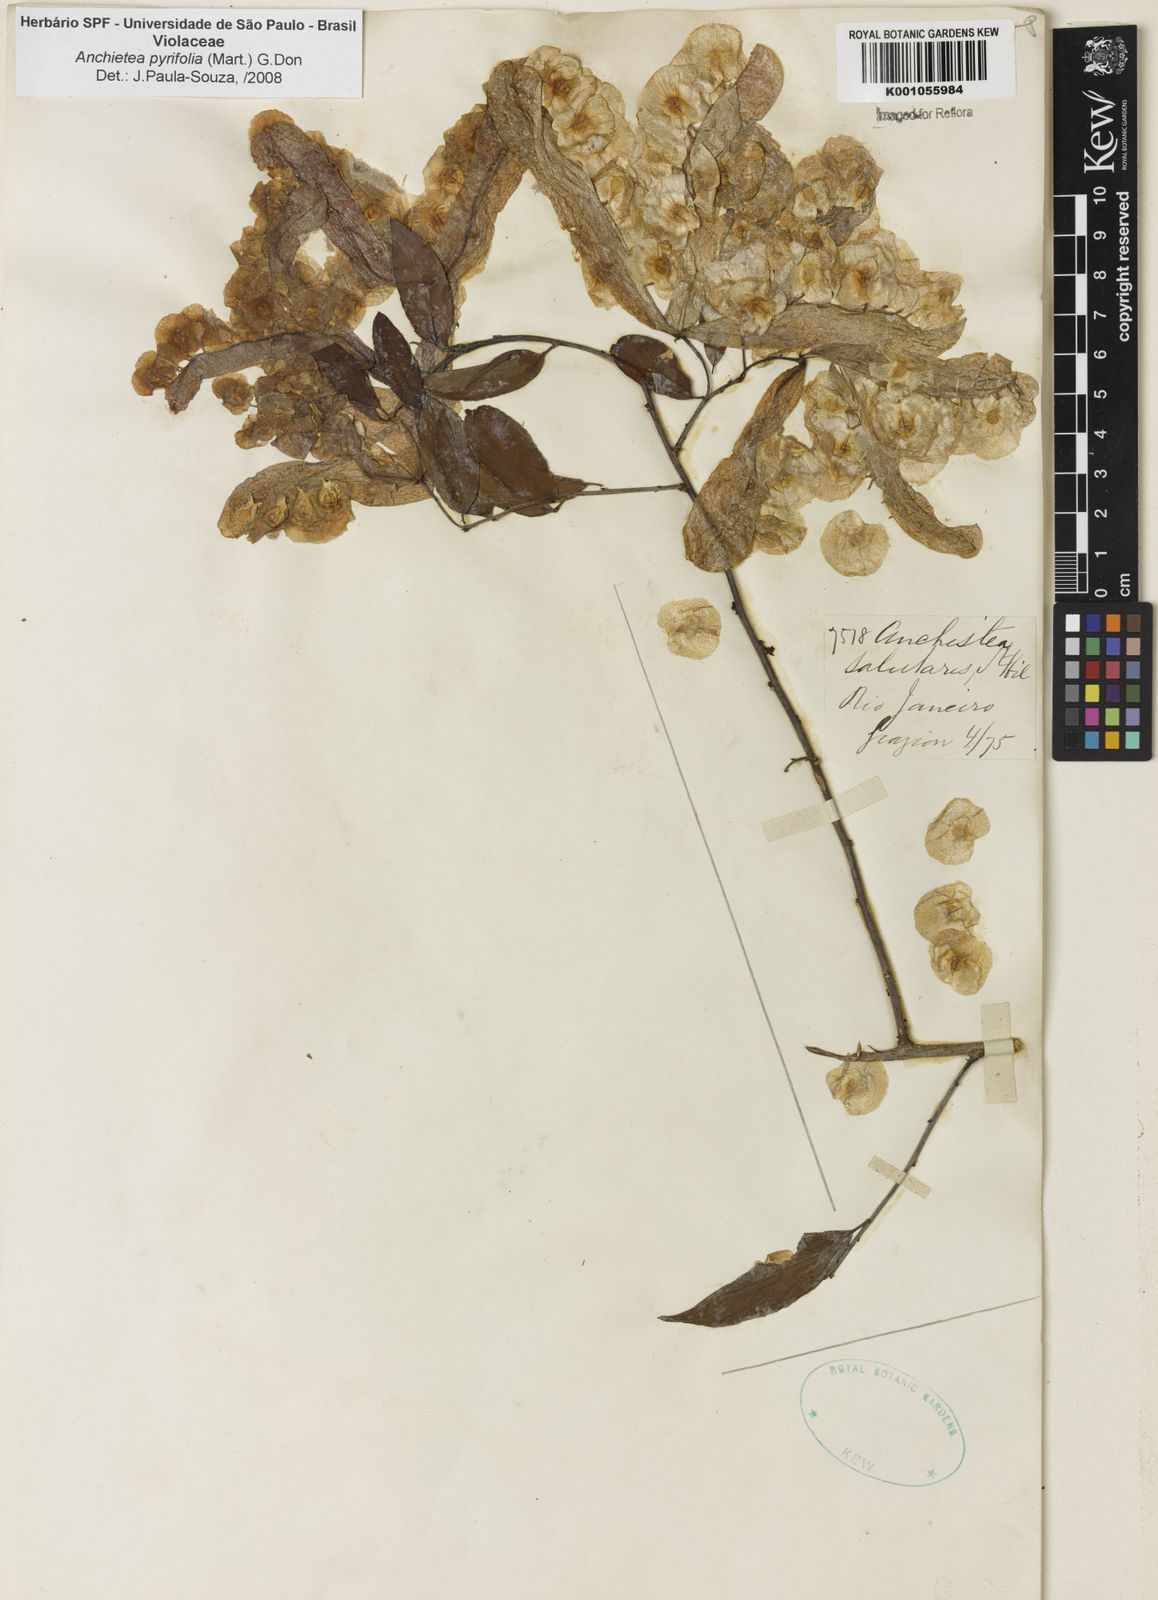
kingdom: Plantae
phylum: Tracheophyta
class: Magnoliopsida
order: Malpighiales
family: Violaceae
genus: Anchietea
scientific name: Anchietea pyrifolia
